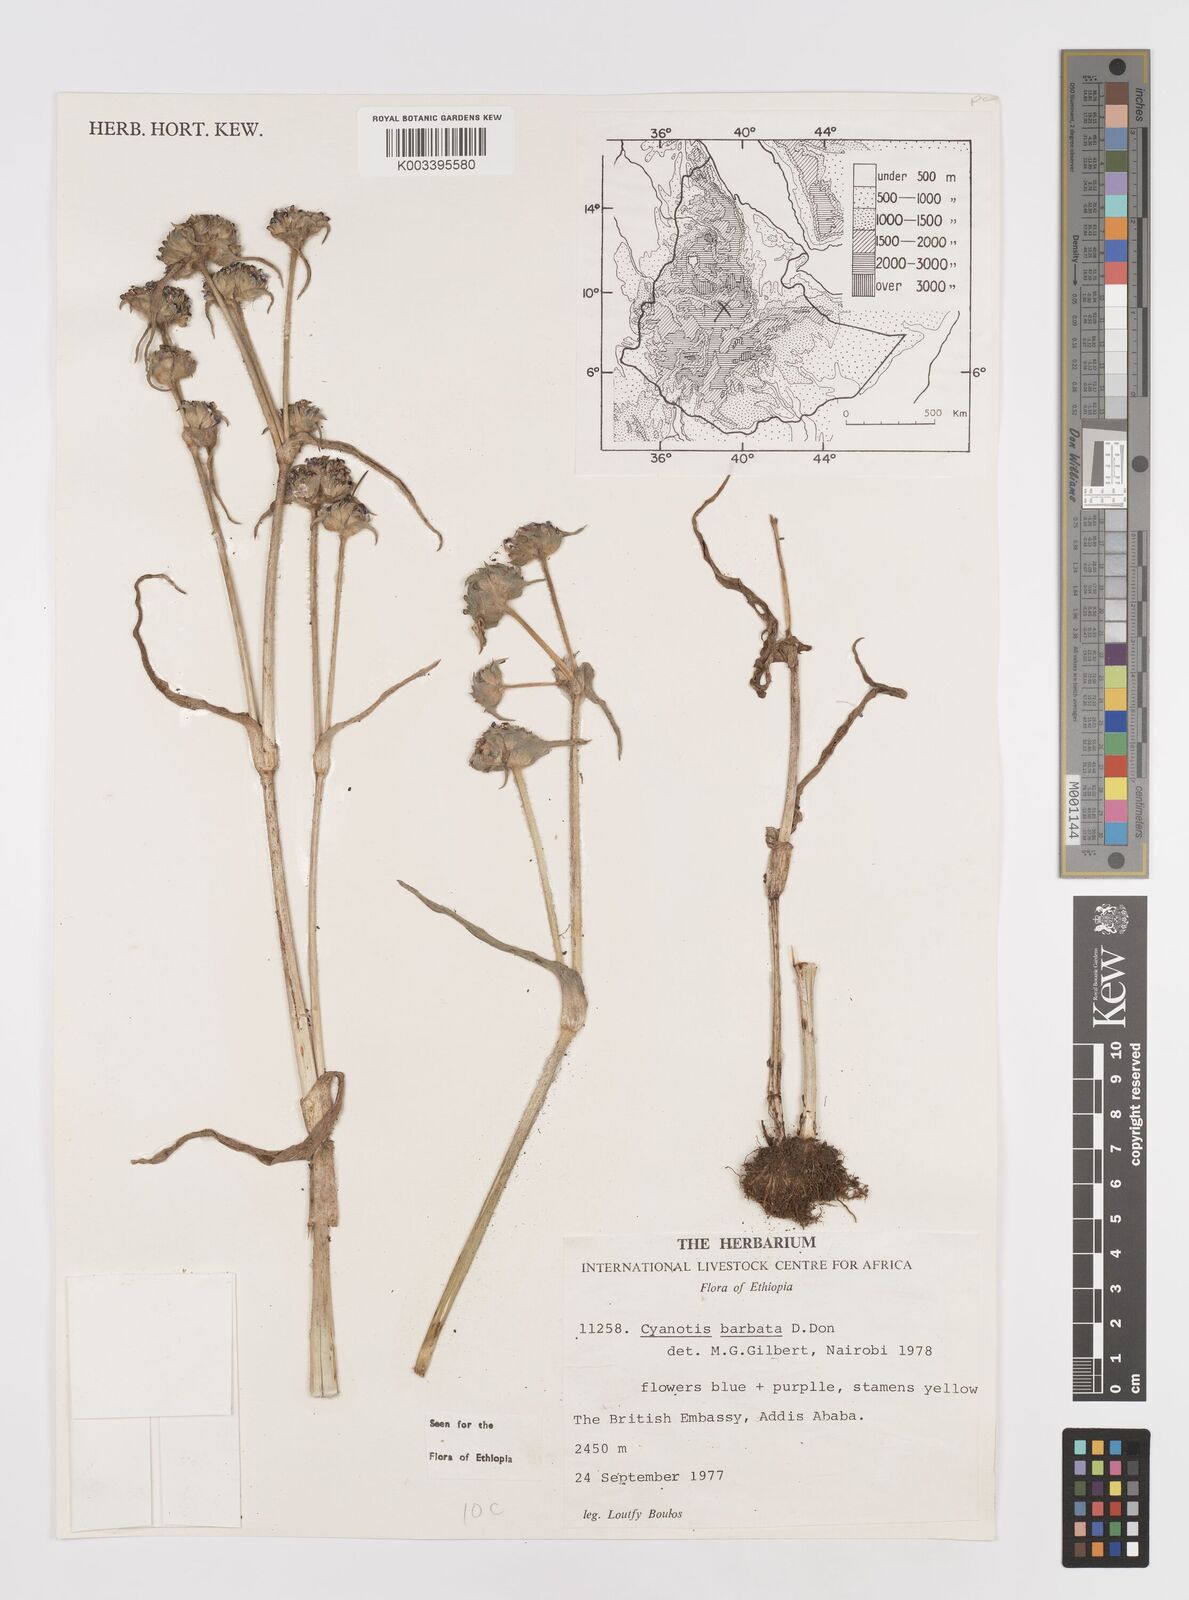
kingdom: Plantae
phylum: Tracheophyta
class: Liliopsida
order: Commelinales
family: Commelinaceae
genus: Cyanotis
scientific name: Cyanotis vaga
